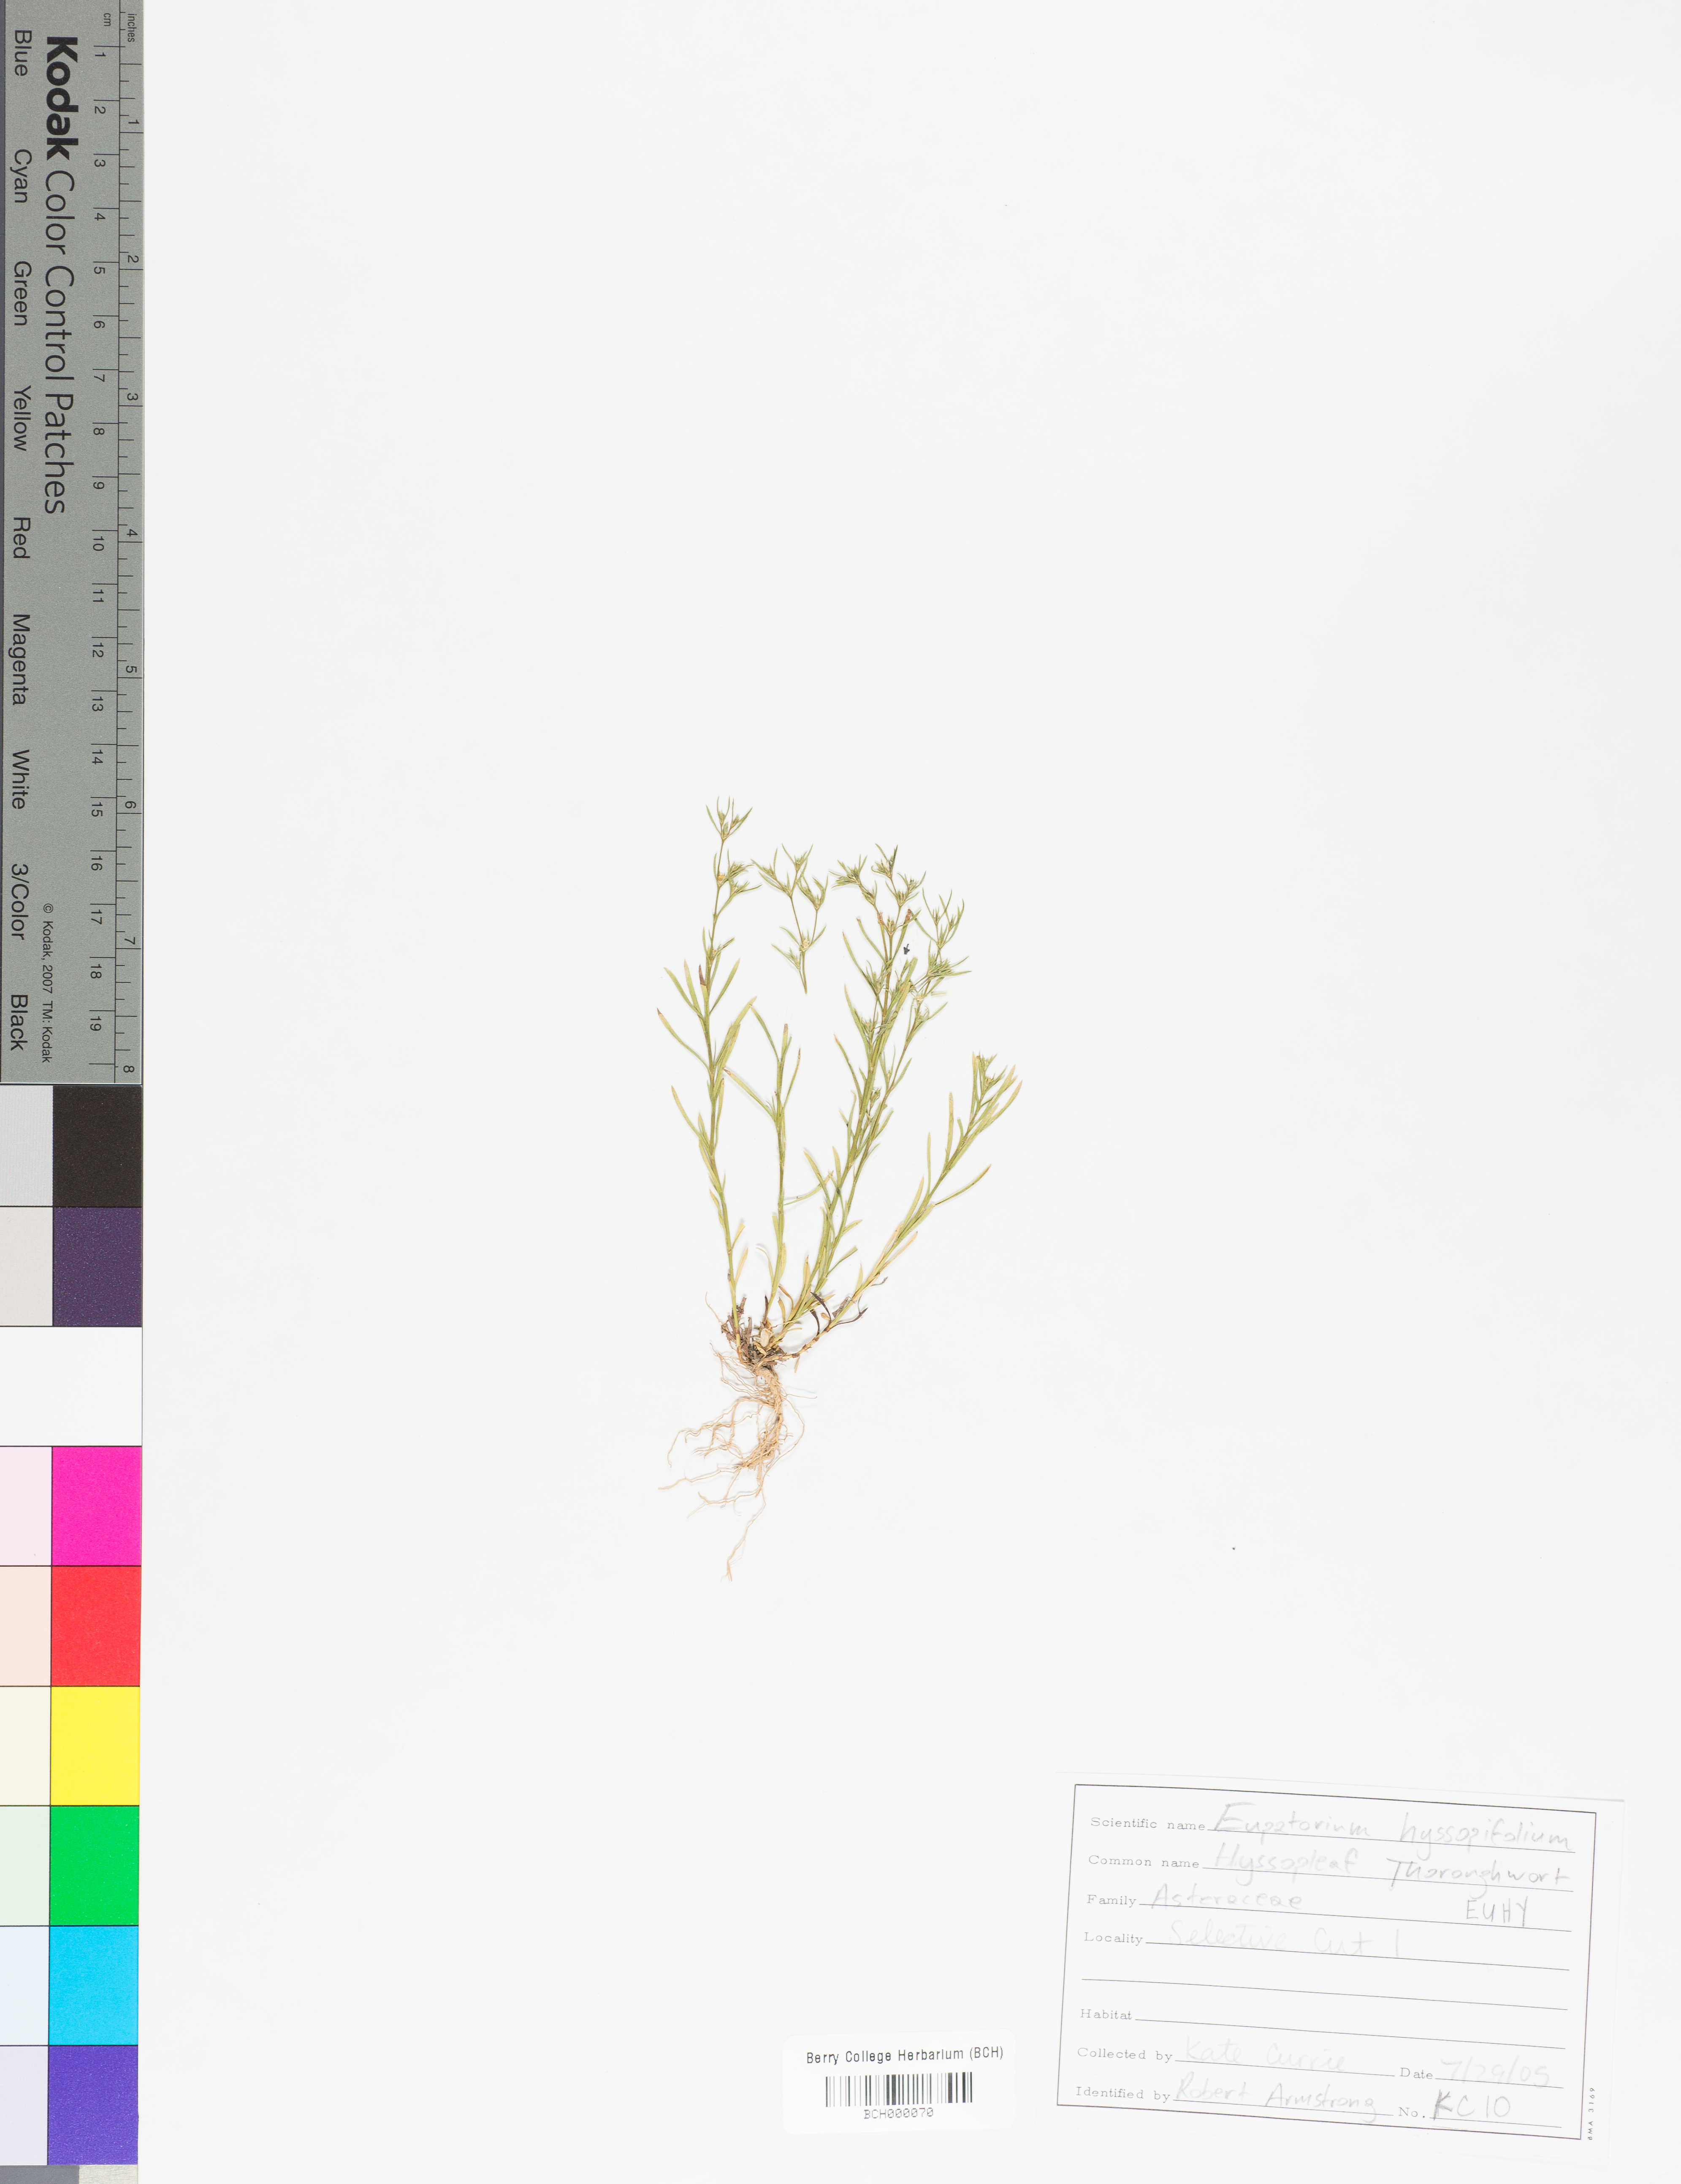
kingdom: Plantae
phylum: Tracheophyta
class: Magnoliopsida
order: Asterales
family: Asteraceae
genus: Eupatorium
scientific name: Eupatorium hyssopifolium
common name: Hyssop-leaf thoroughwort
